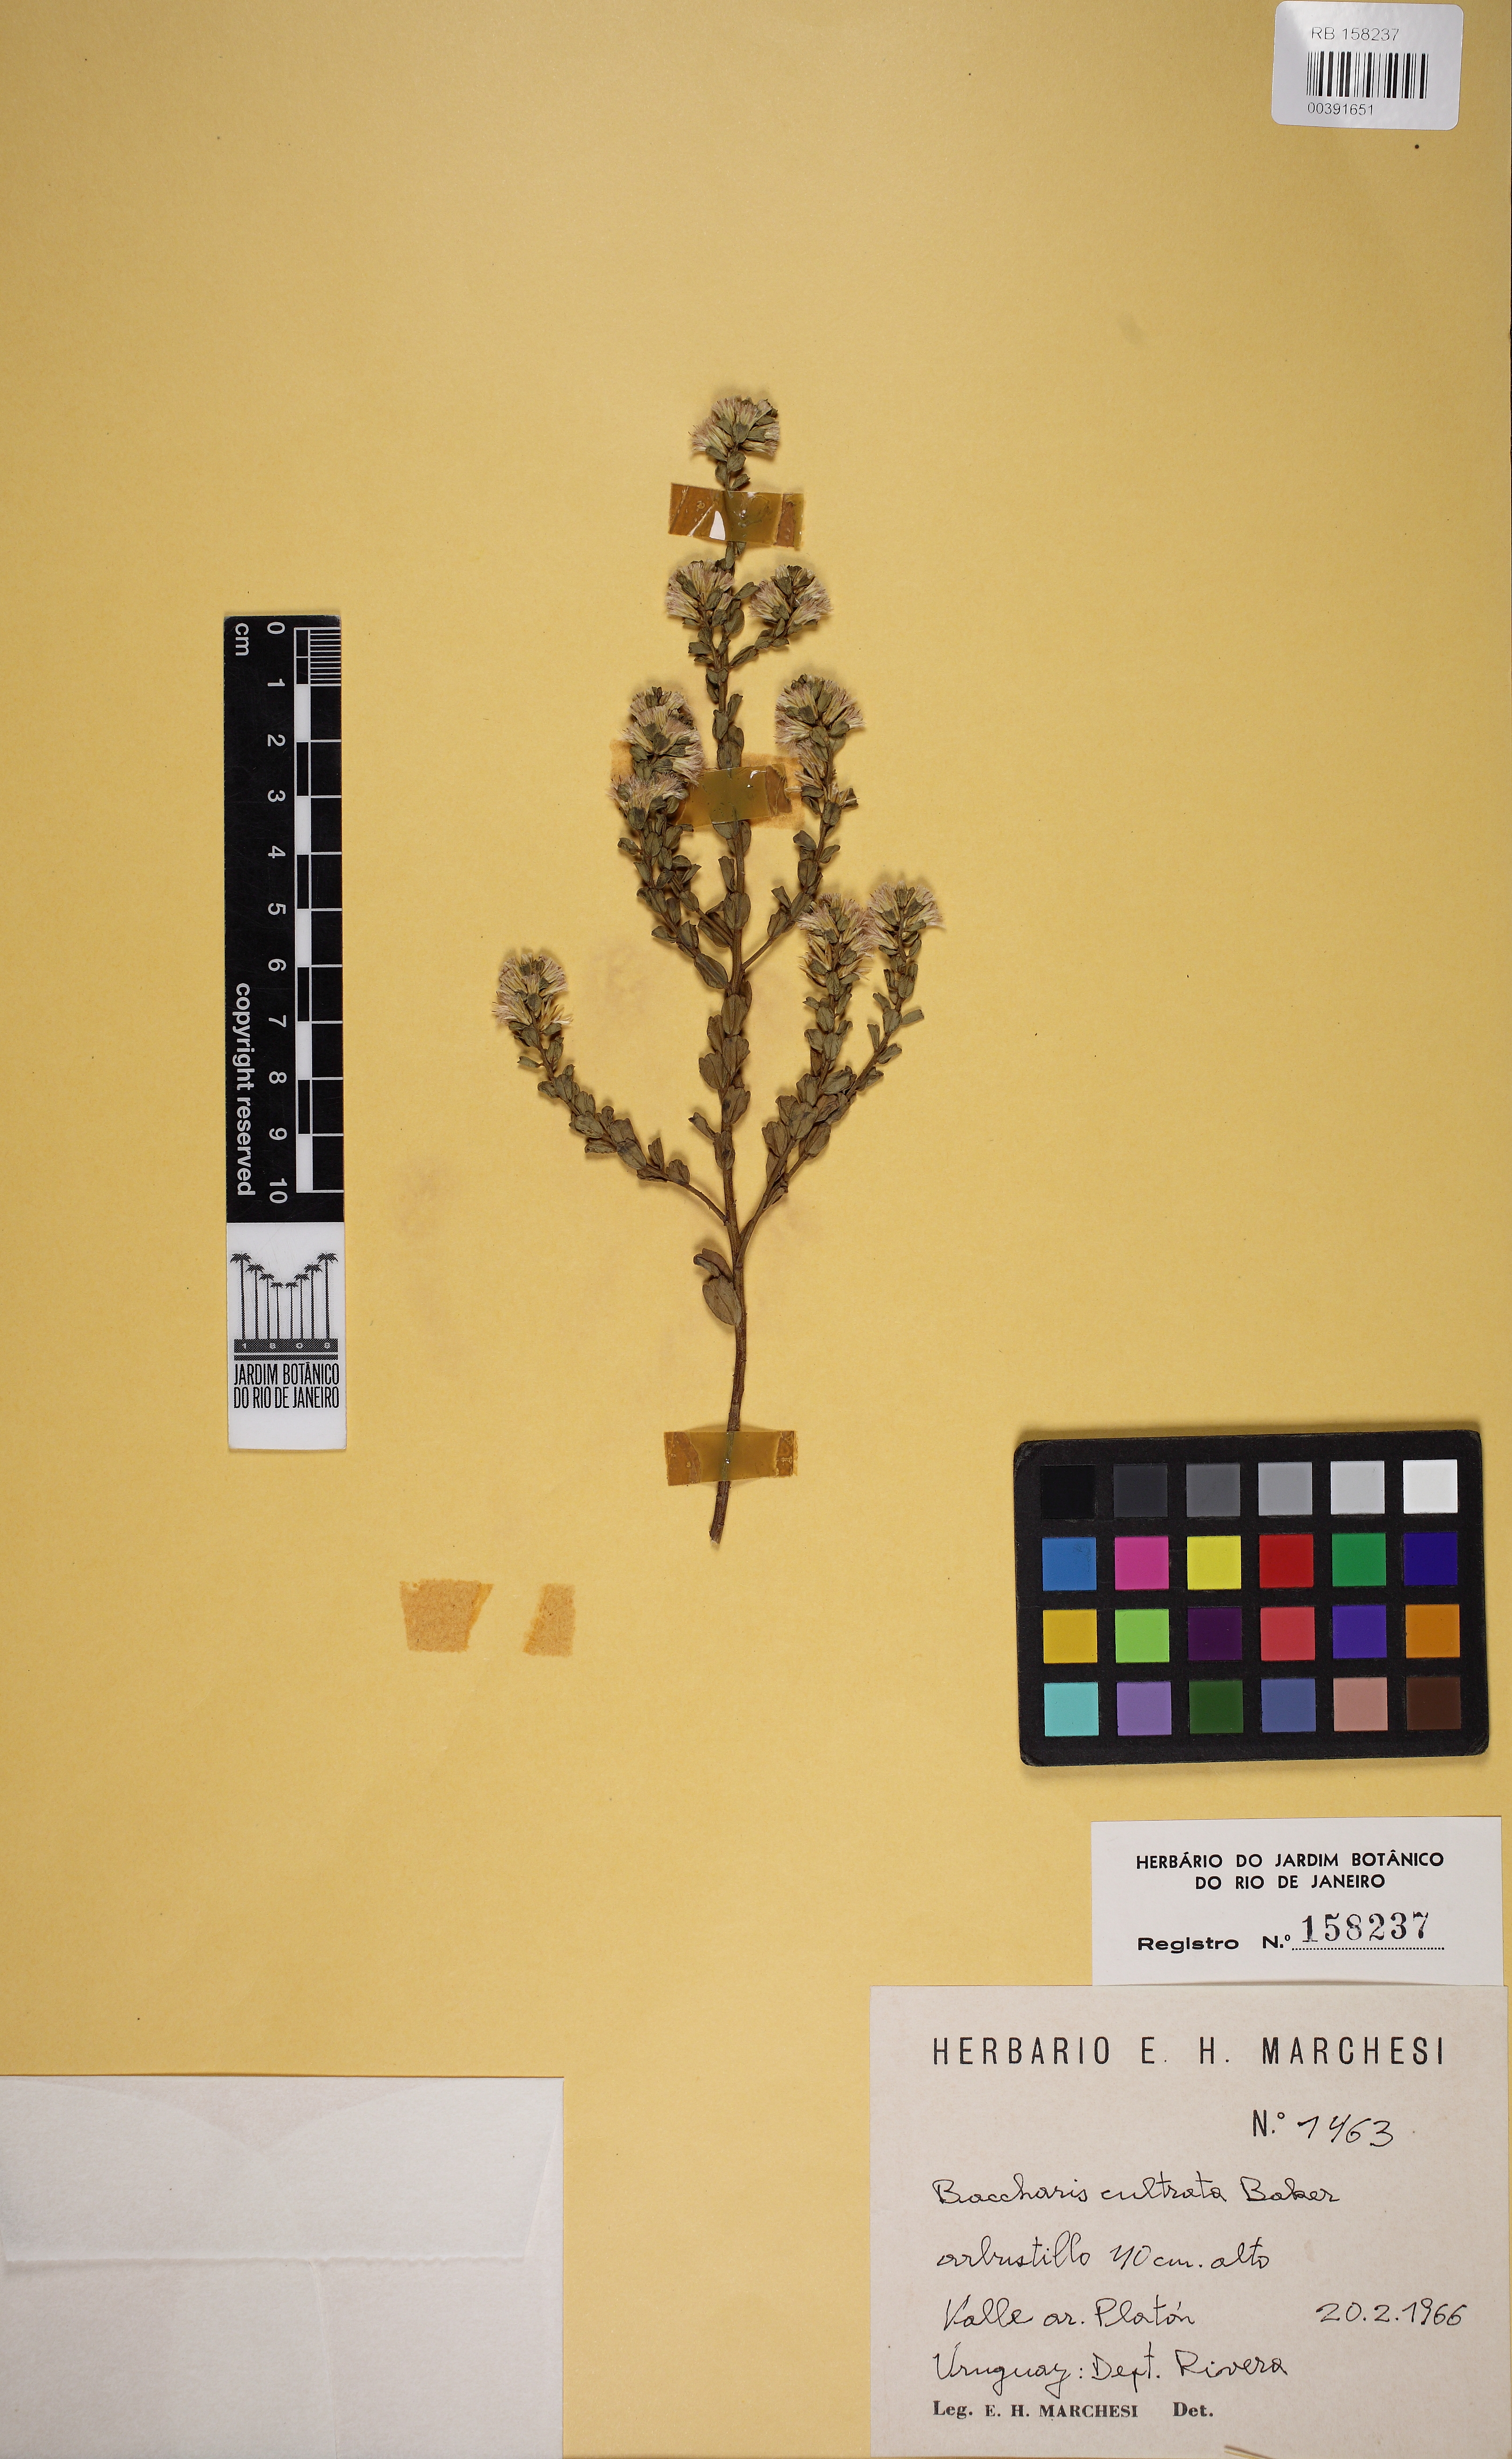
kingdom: Plantae
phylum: Tracheophyta
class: Magnoliopsida
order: Asterales
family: Asteraceae
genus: Baccharis
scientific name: Baccharis cultrata
